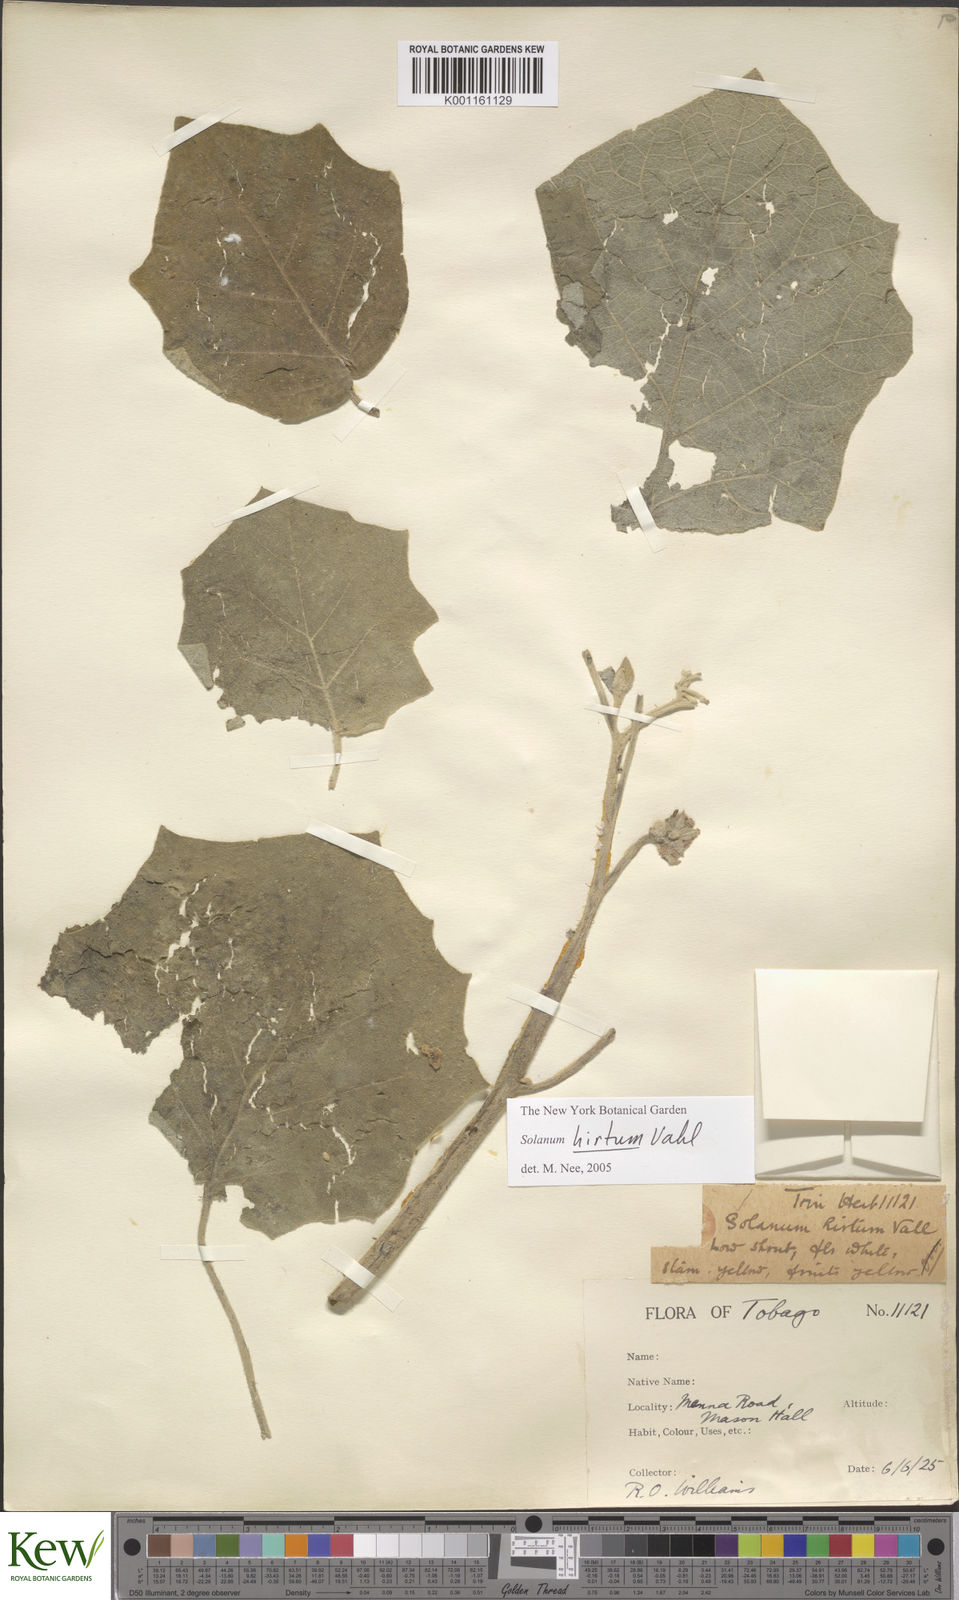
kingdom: Plantae
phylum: Tracheophyta
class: Magnoliopsida
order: Solanales
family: Solanaceae
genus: Solanum
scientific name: Solanum hirtum
